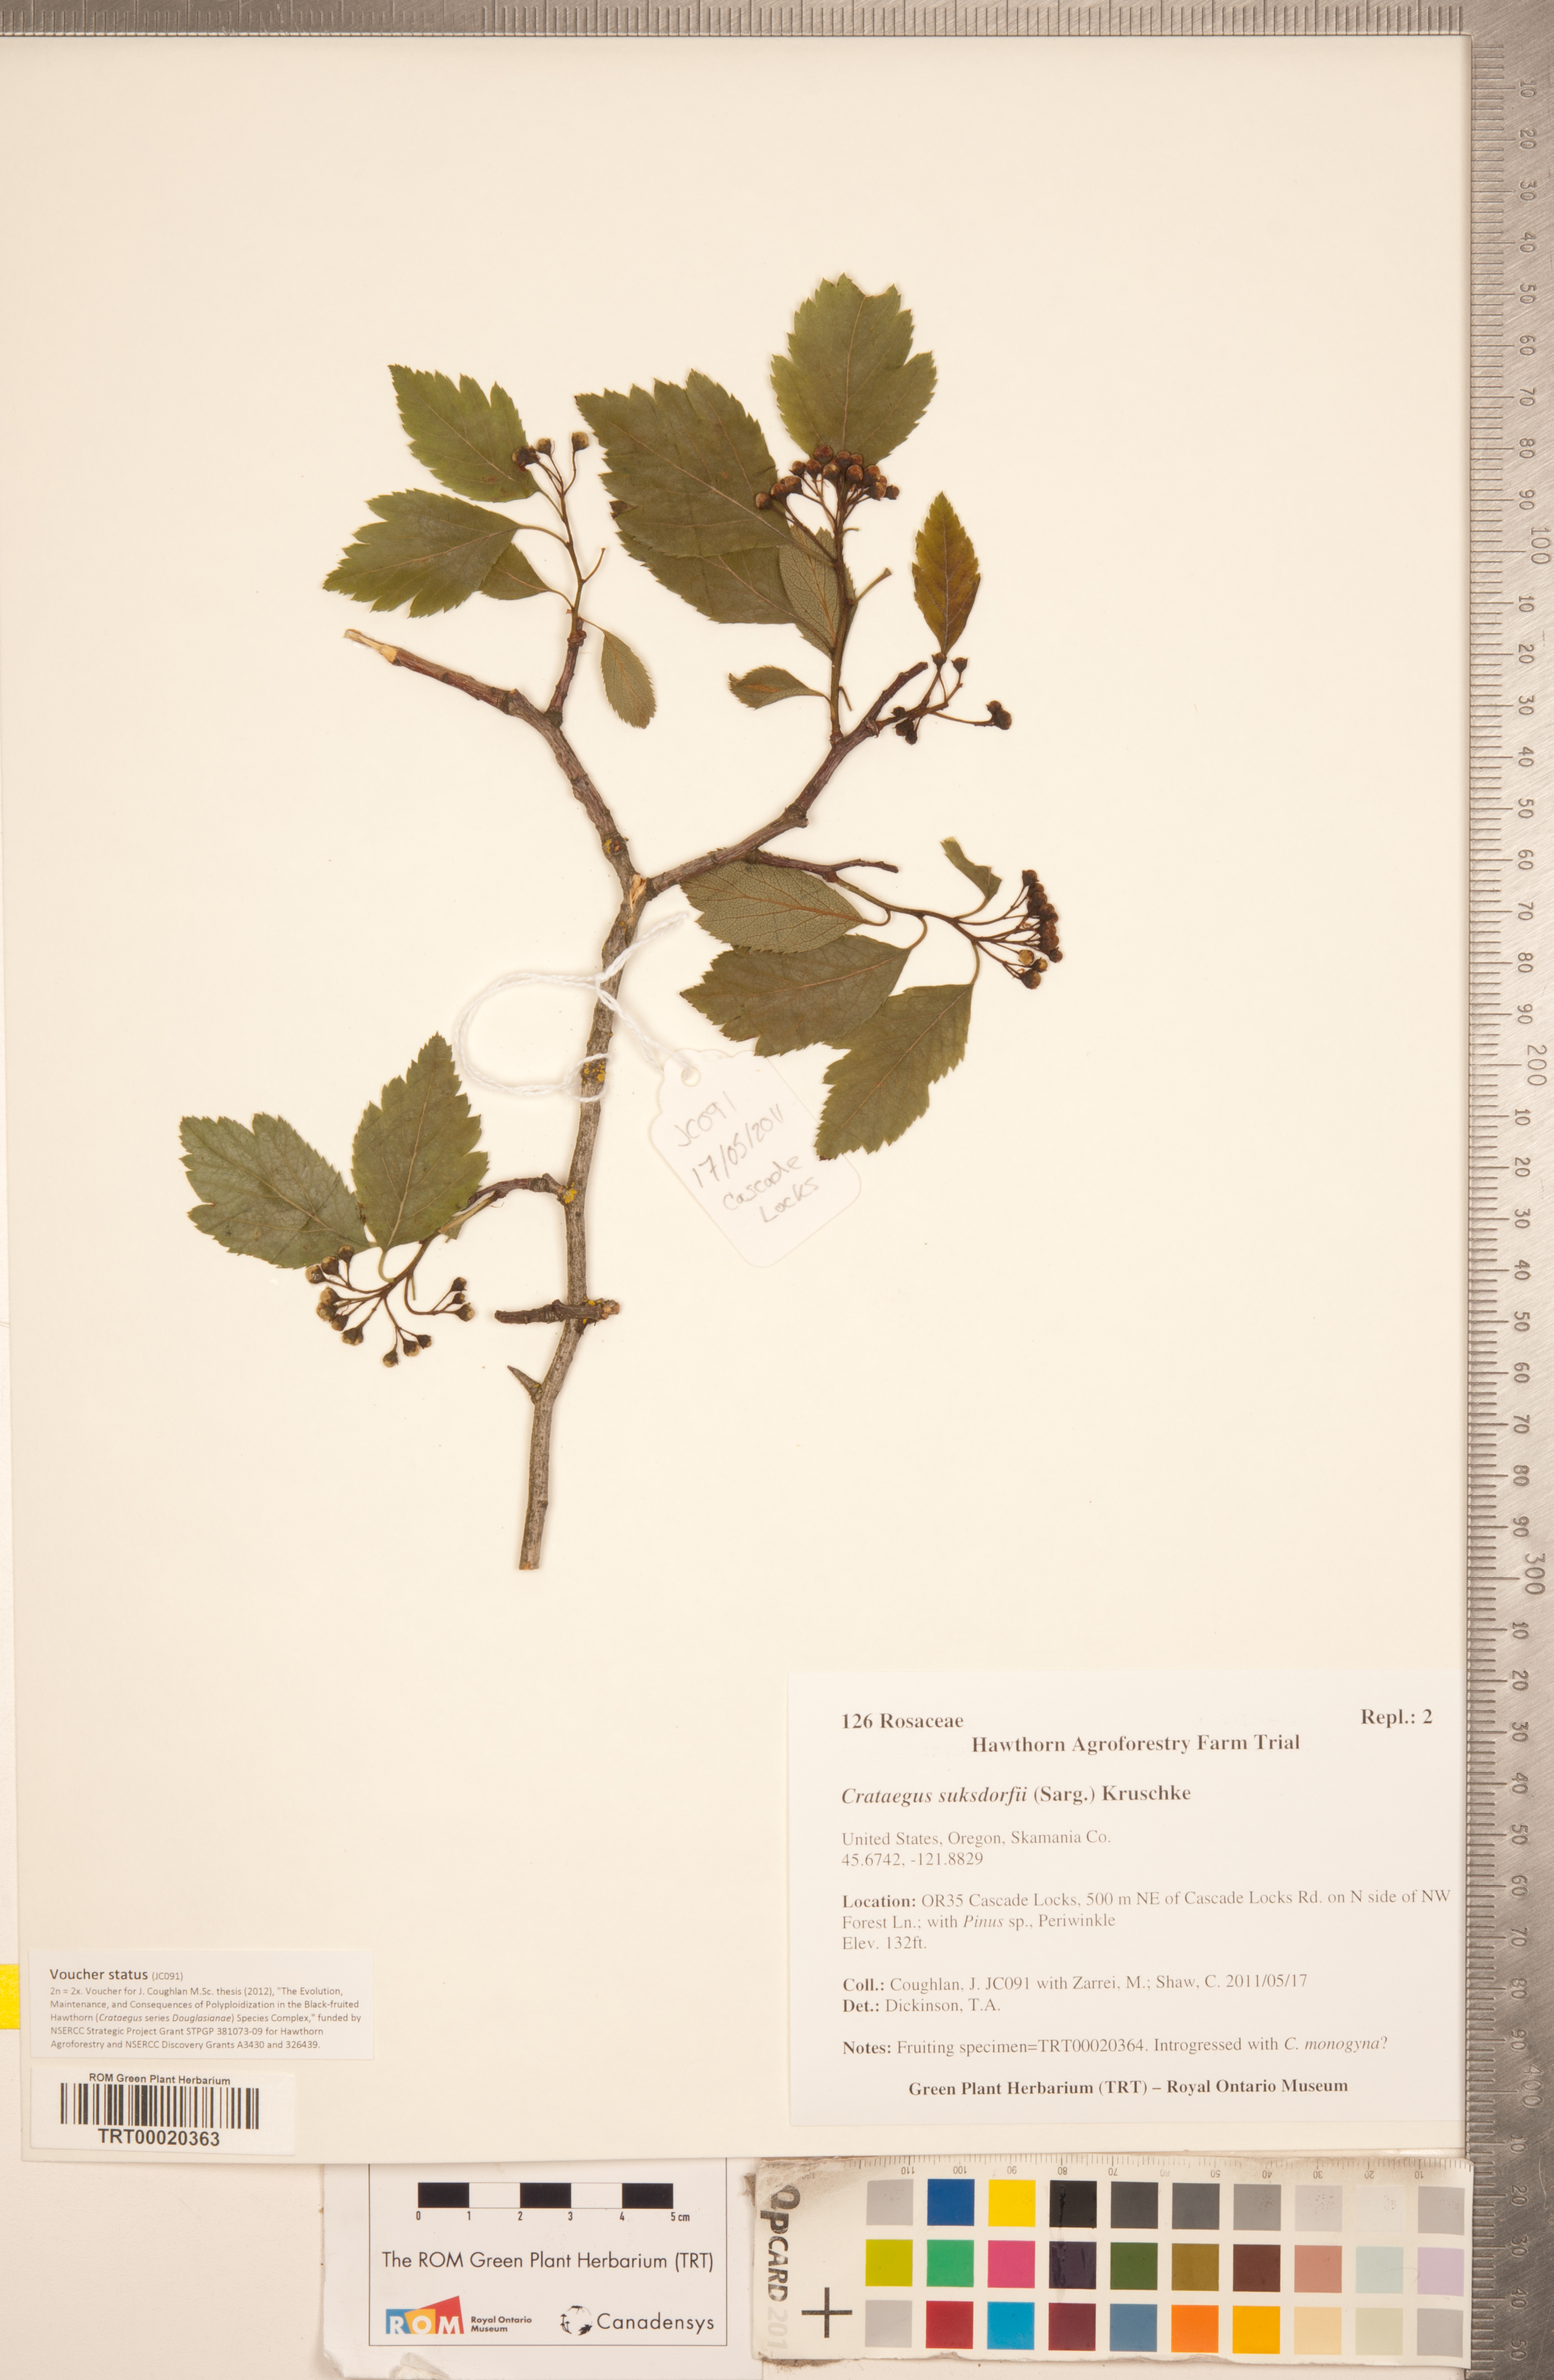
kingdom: Plantae
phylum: Tracheophyta
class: Magnoliopsida
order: Rosales
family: Rosaceae
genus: Crataegus
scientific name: Crataegus gaylussacia
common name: Huckleberry hawthorn
